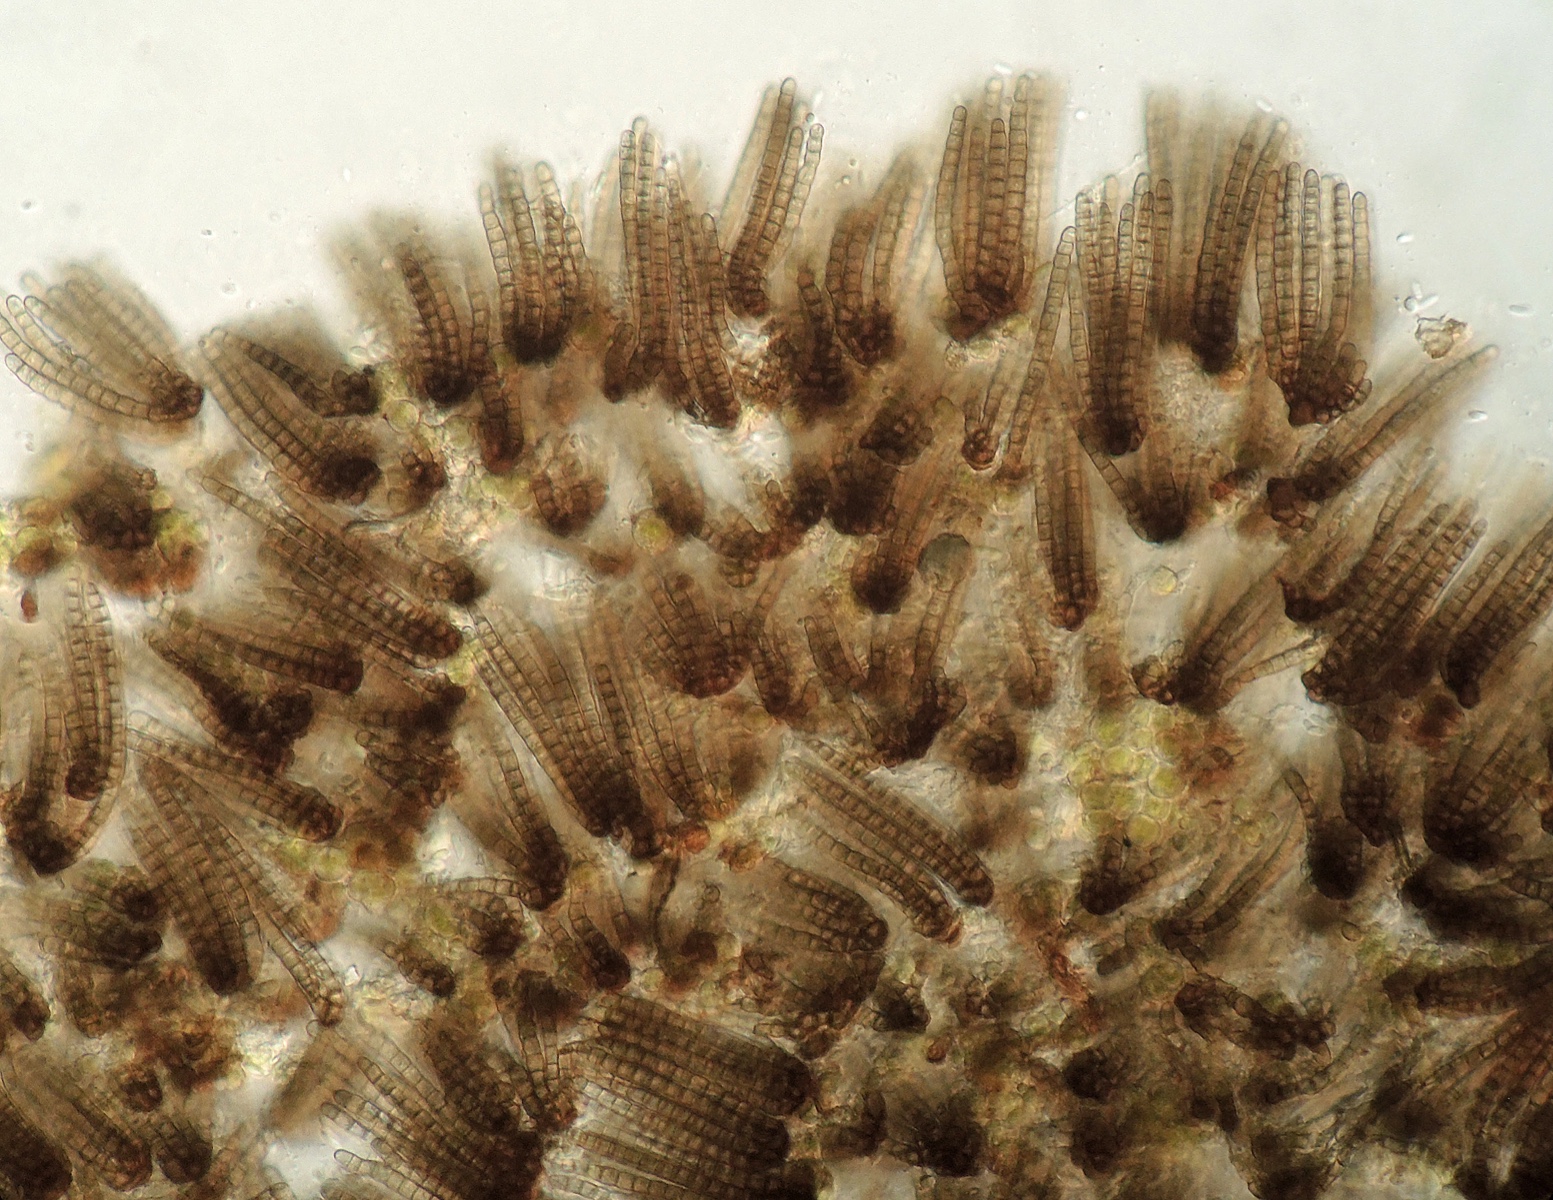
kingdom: Fungi
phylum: Ascomycota
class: Dothideomycetes
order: Pleosporales
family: Cryptocoryneaceae
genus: Cryptocoryneum
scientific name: Cryptocoryneum condensatum
